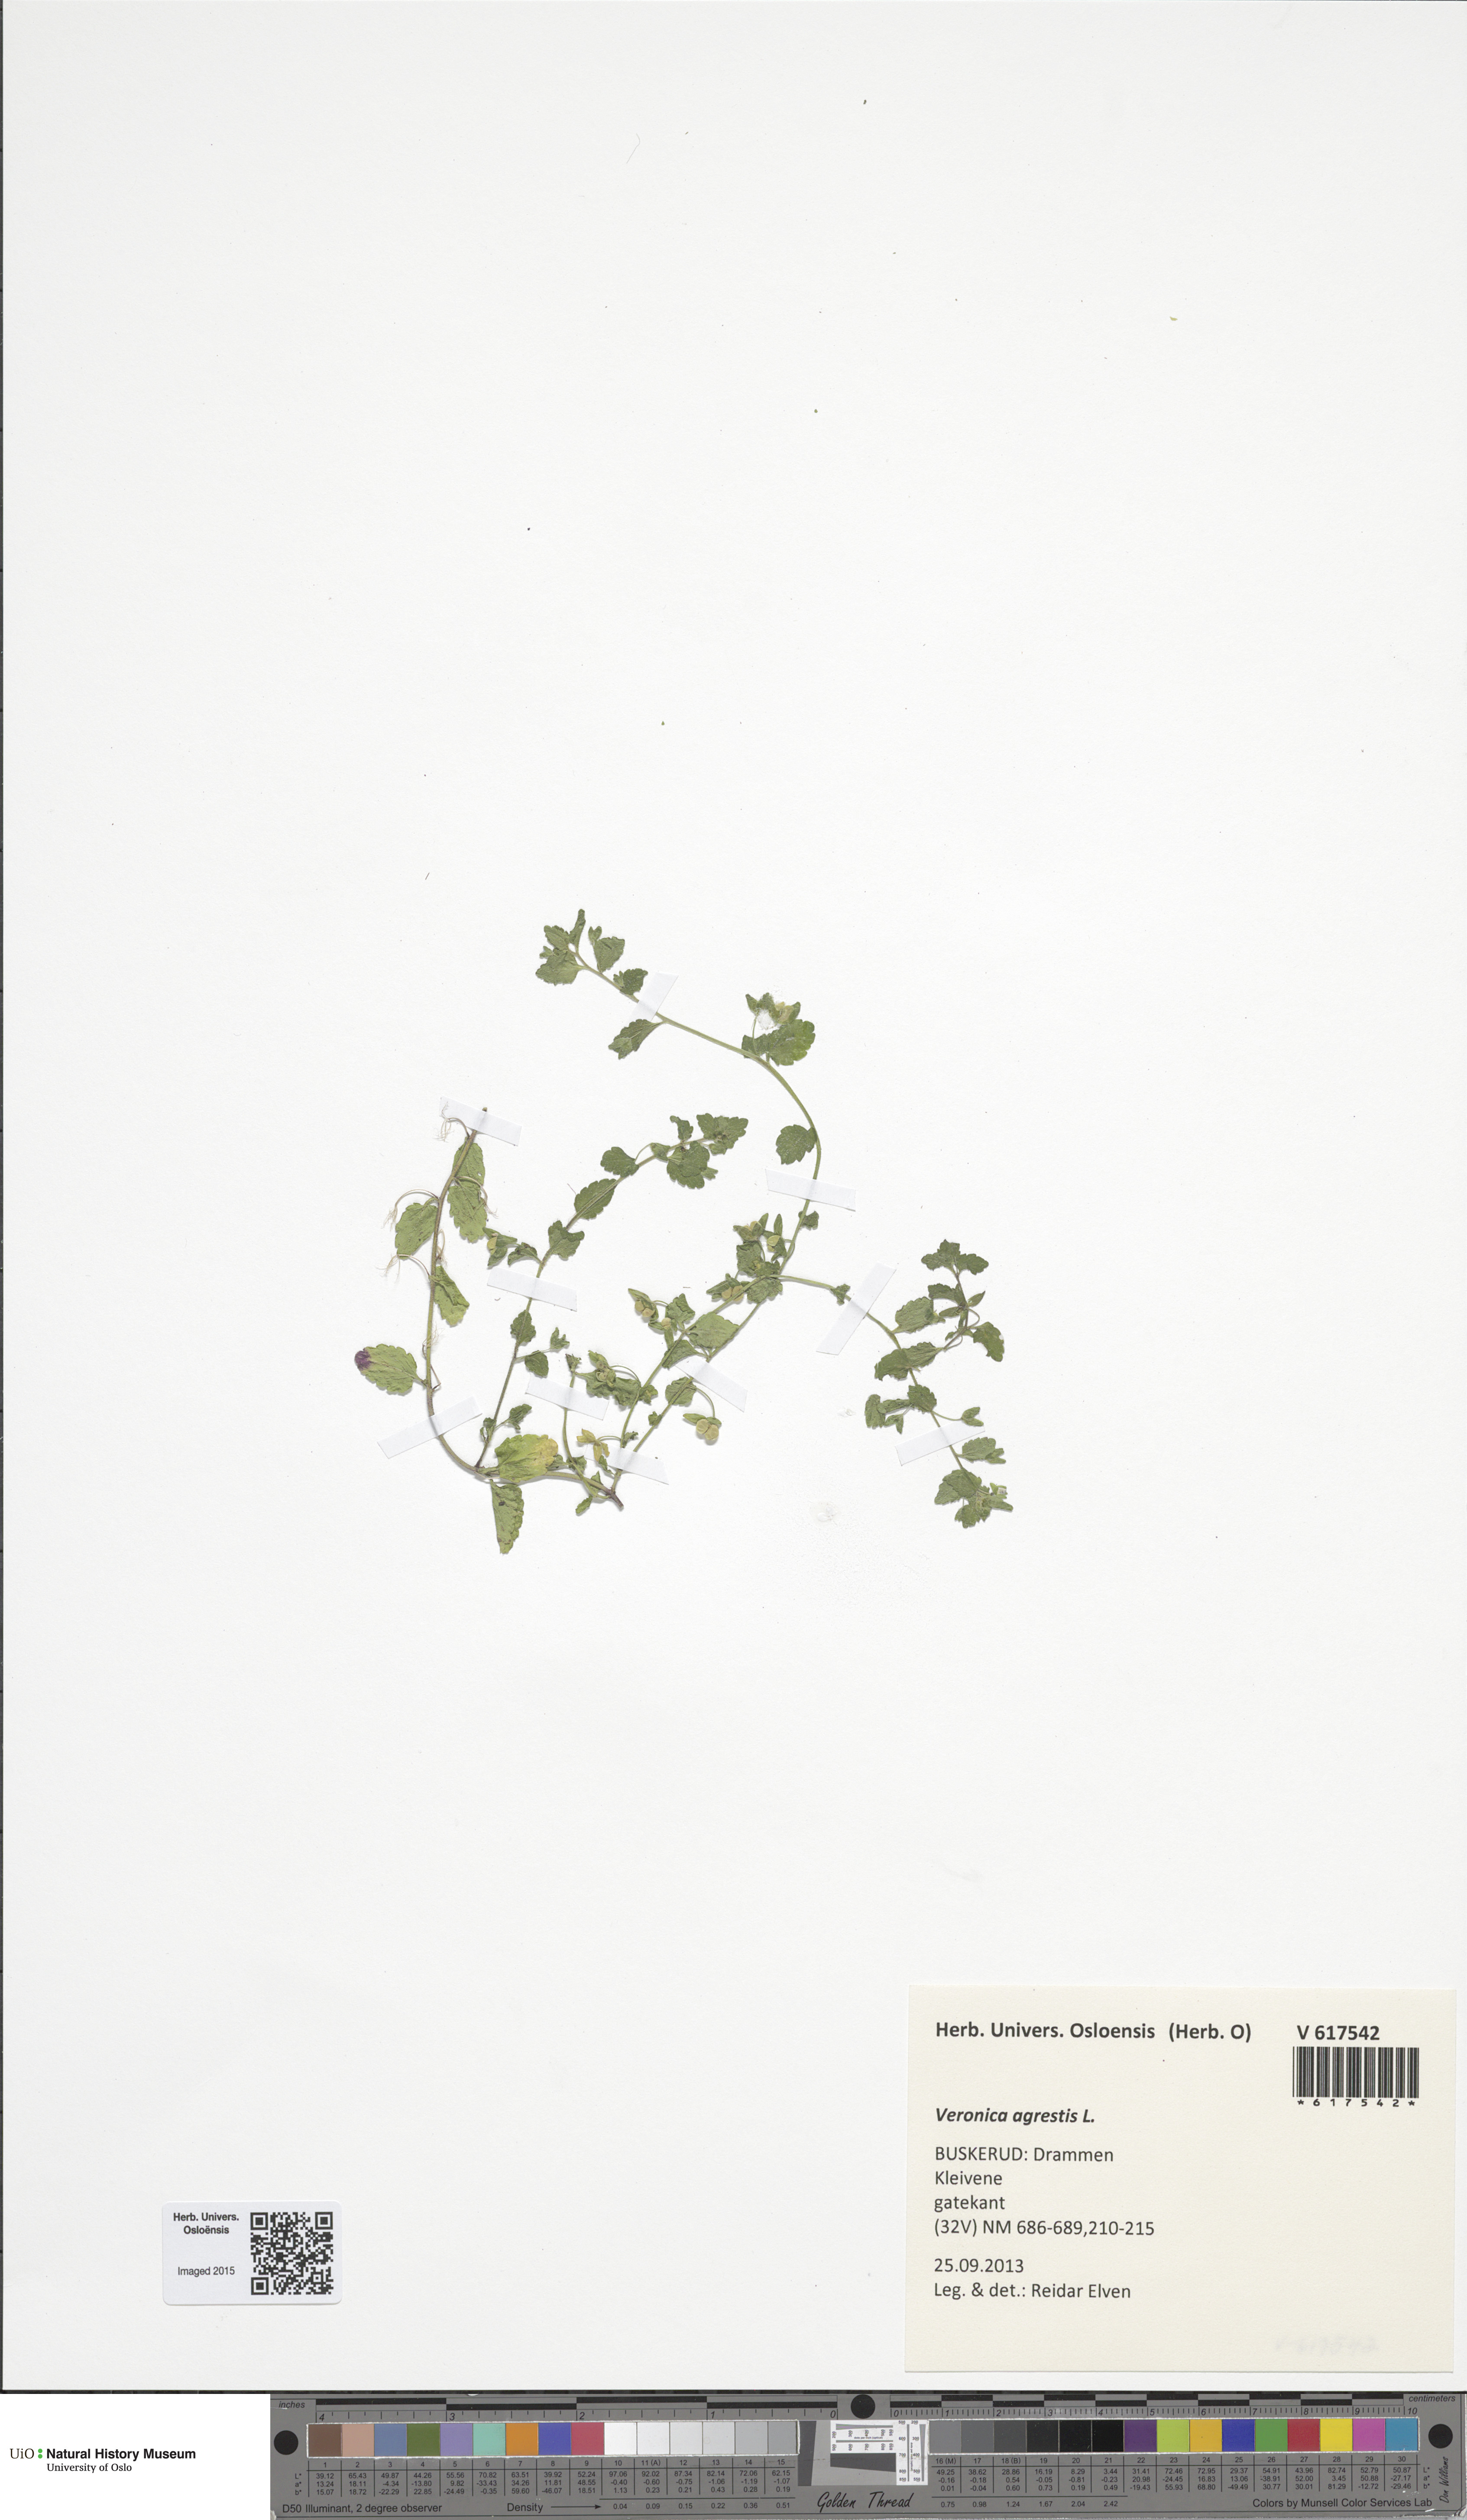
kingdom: Plantae
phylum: Tracheophyta
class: Magnoliopsida
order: Lamiales
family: Plantaginaceae
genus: Veronica
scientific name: Veronica agrestis
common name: Green field-speedwell
